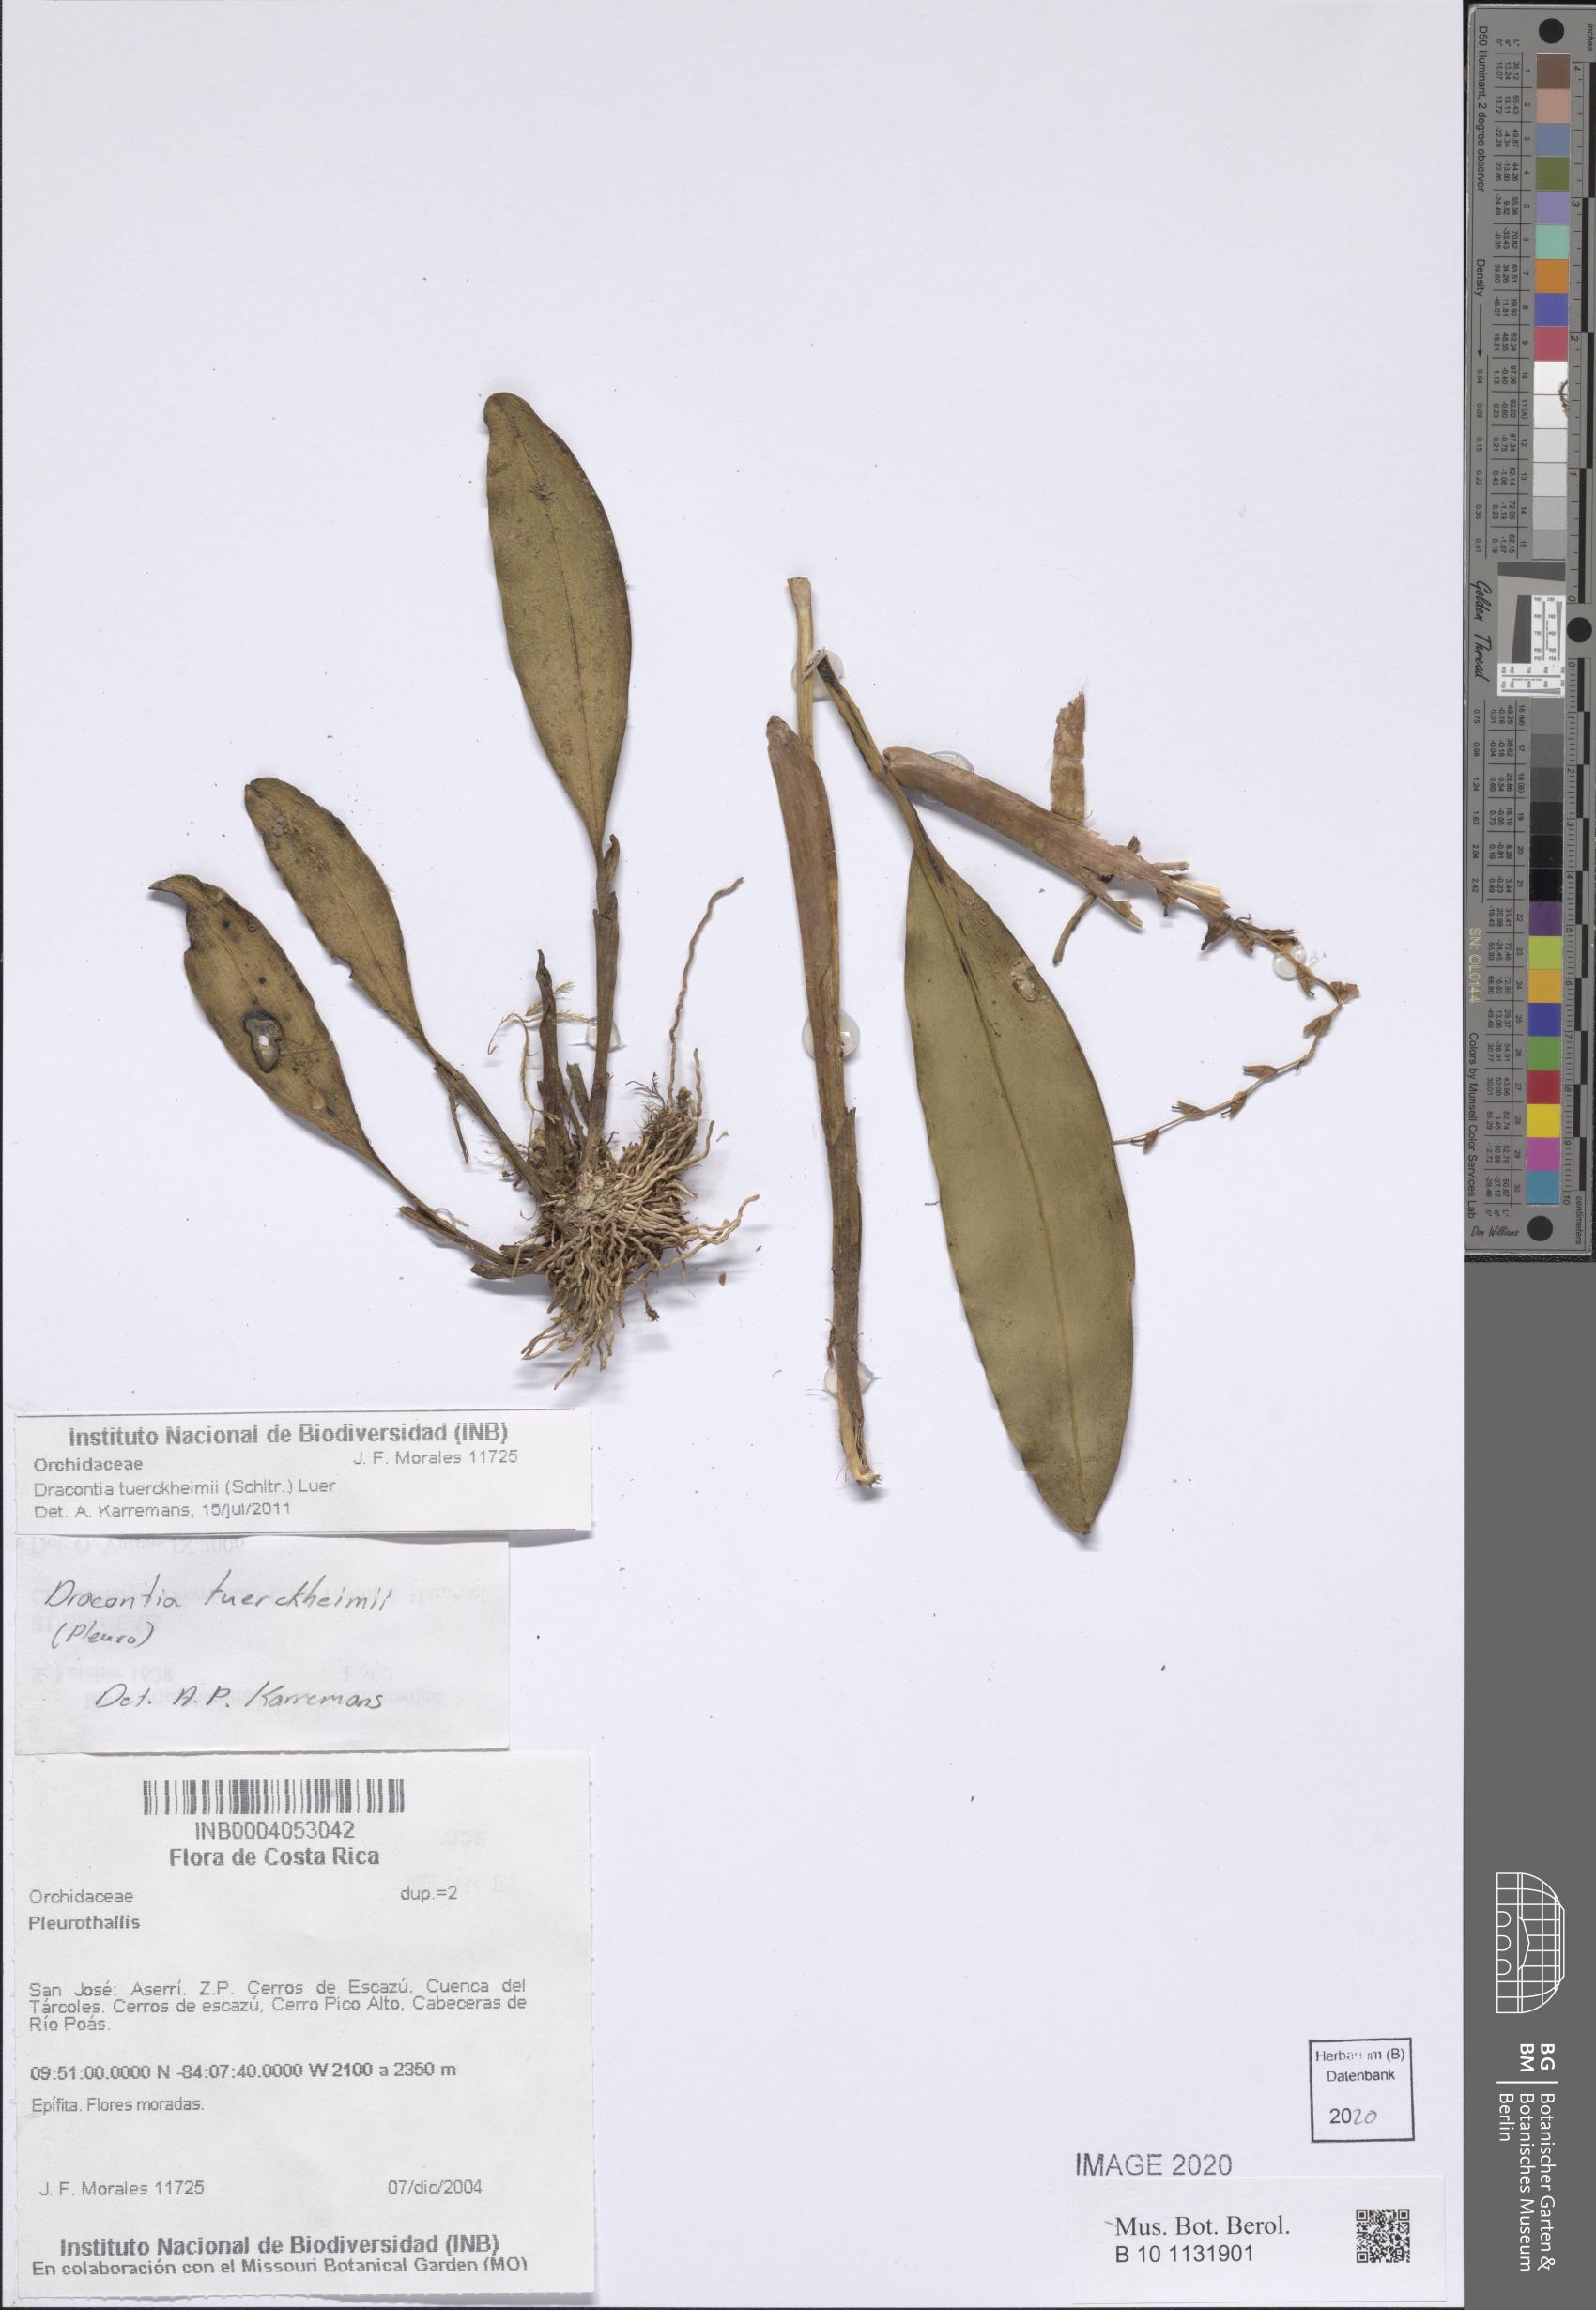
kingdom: Plantae
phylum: Tracheophyta
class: Liliopsida
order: Asparagales
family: Orchidaceae
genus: Stelis
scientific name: Stelis megachlamys
